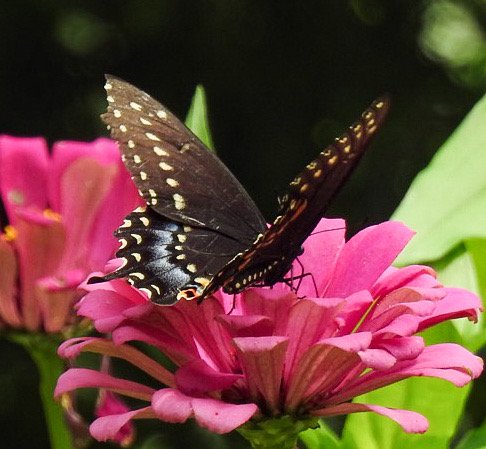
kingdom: Animalia
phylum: Arthropoda
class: Insecta
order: Lepidoptera
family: Papilionidae
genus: Papilio
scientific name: Papilio polyxenes
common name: Black Swallowtail
